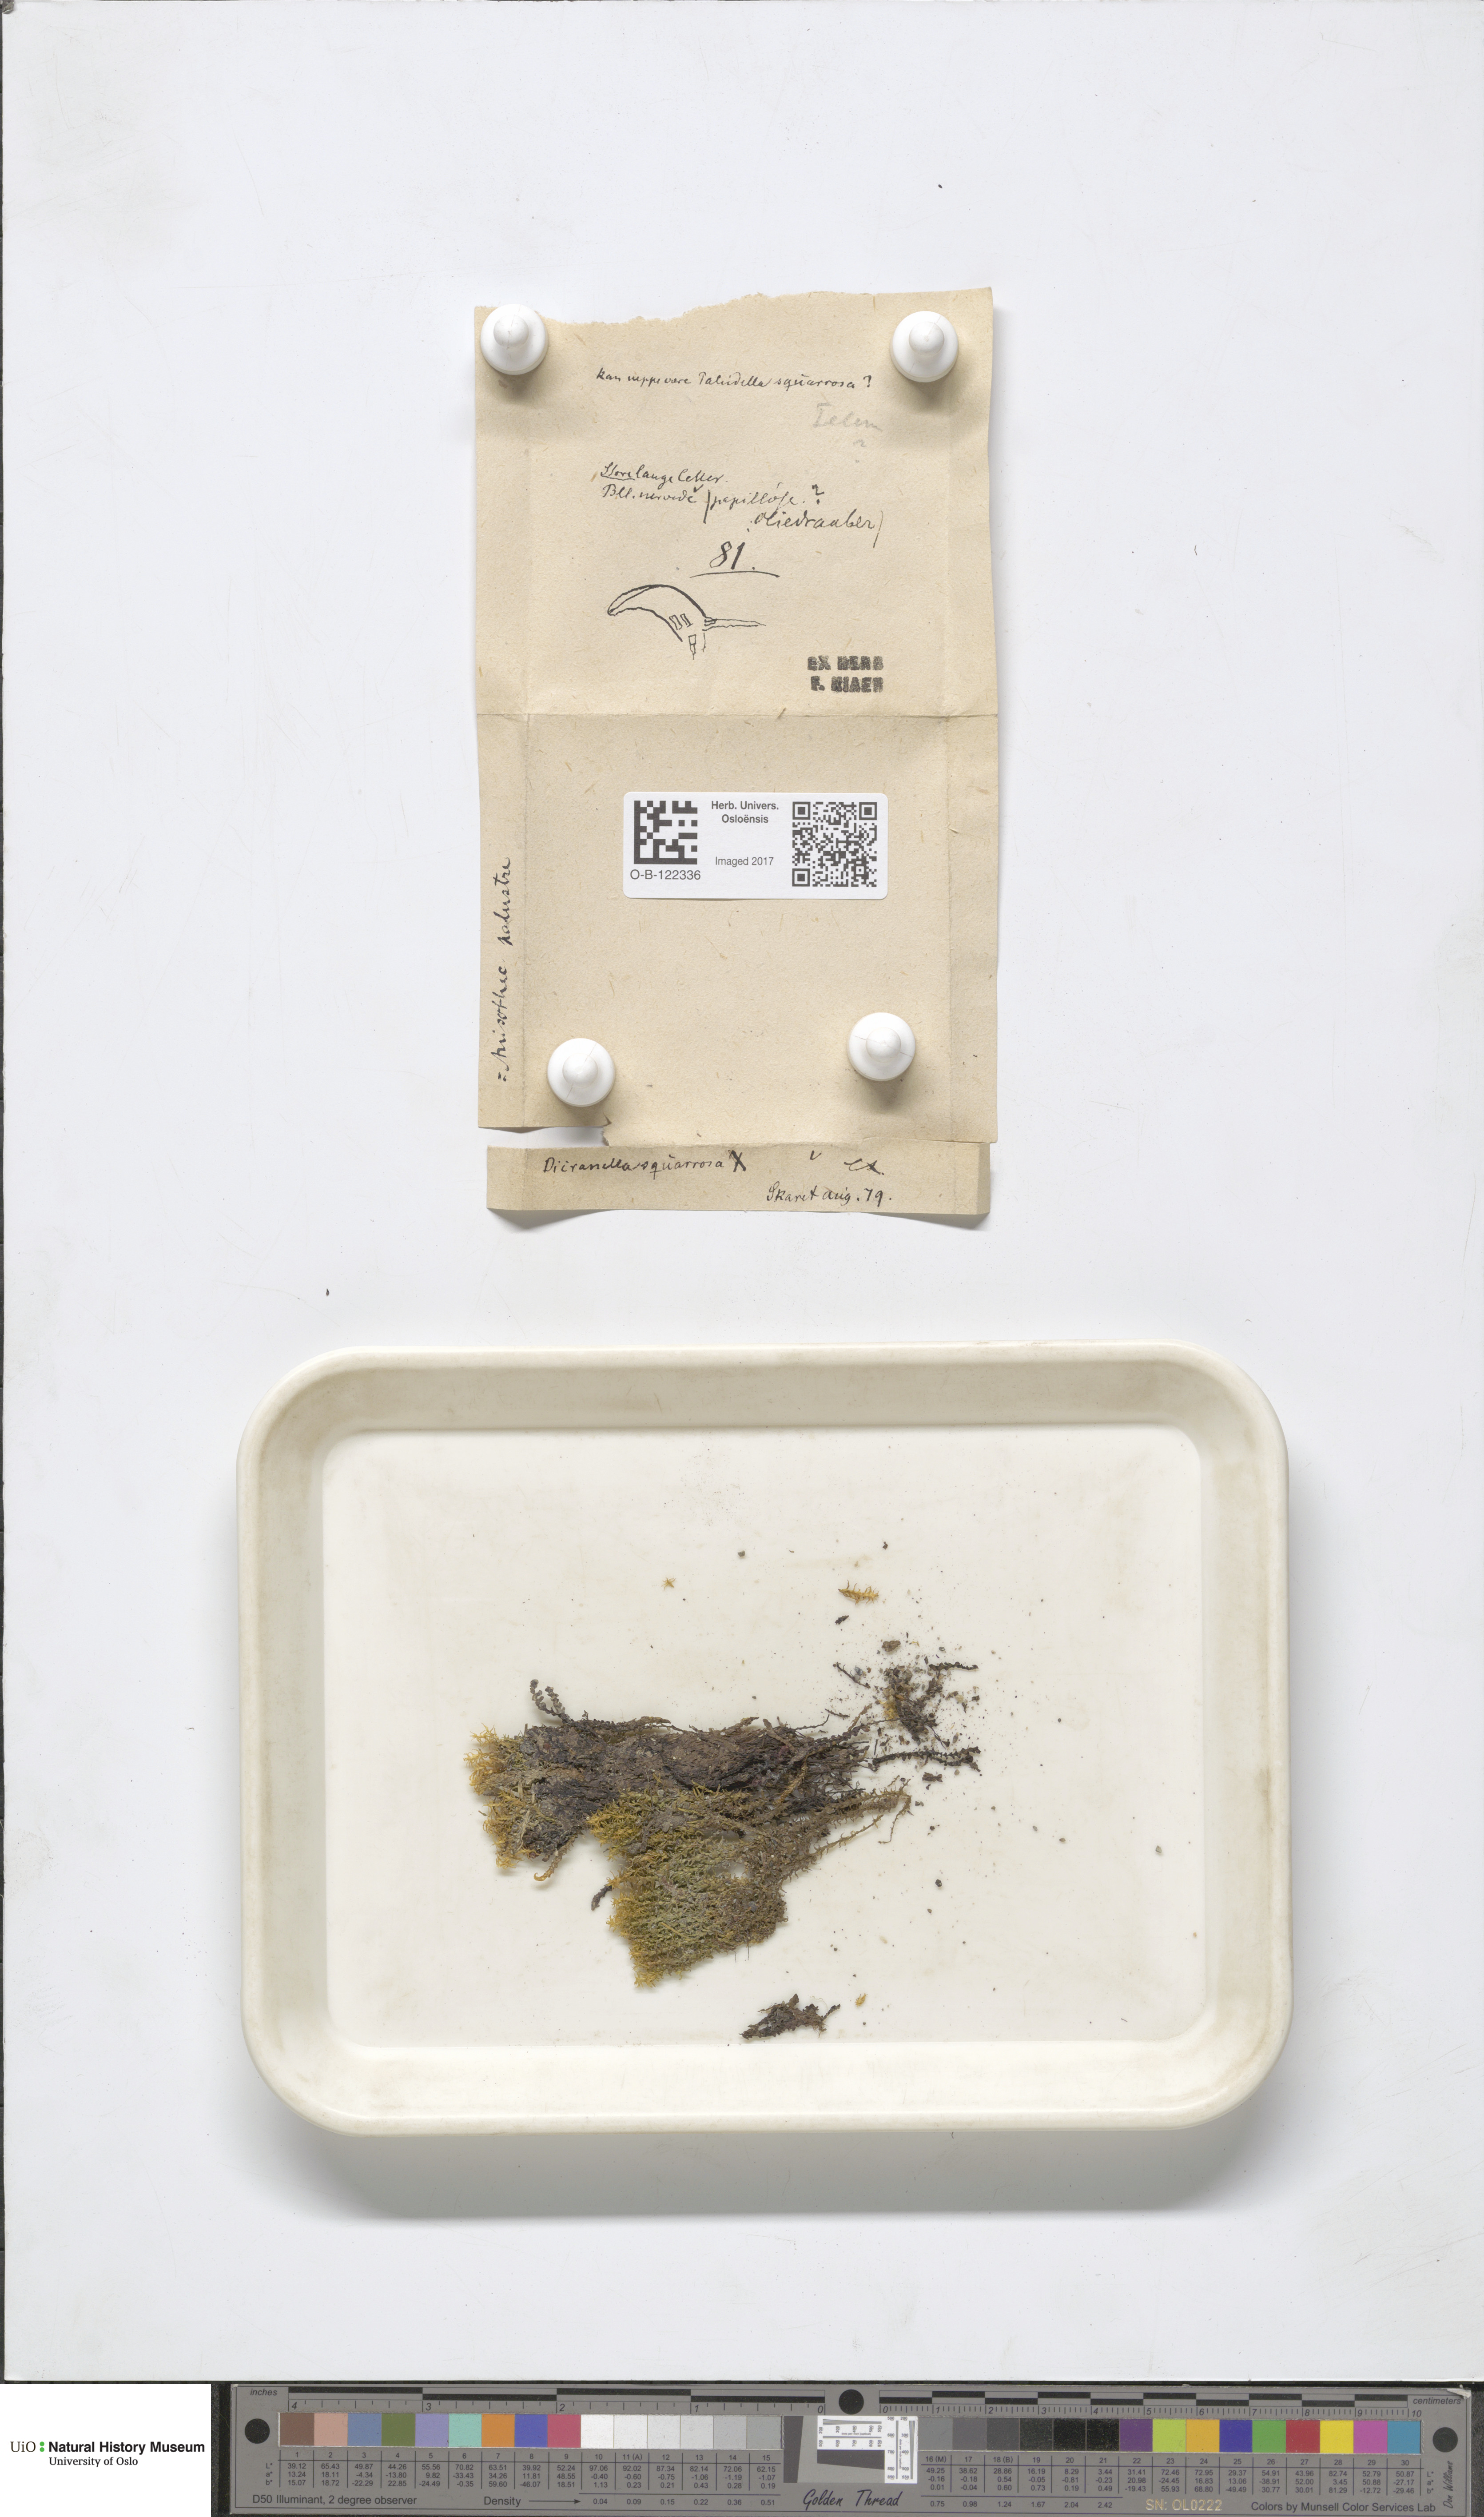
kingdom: Plantae
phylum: Bryophyta
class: Bryopsida
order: Dicranales
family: Aongstroemiaceae
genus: Diobelonella
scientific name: Diobelonella palustris
